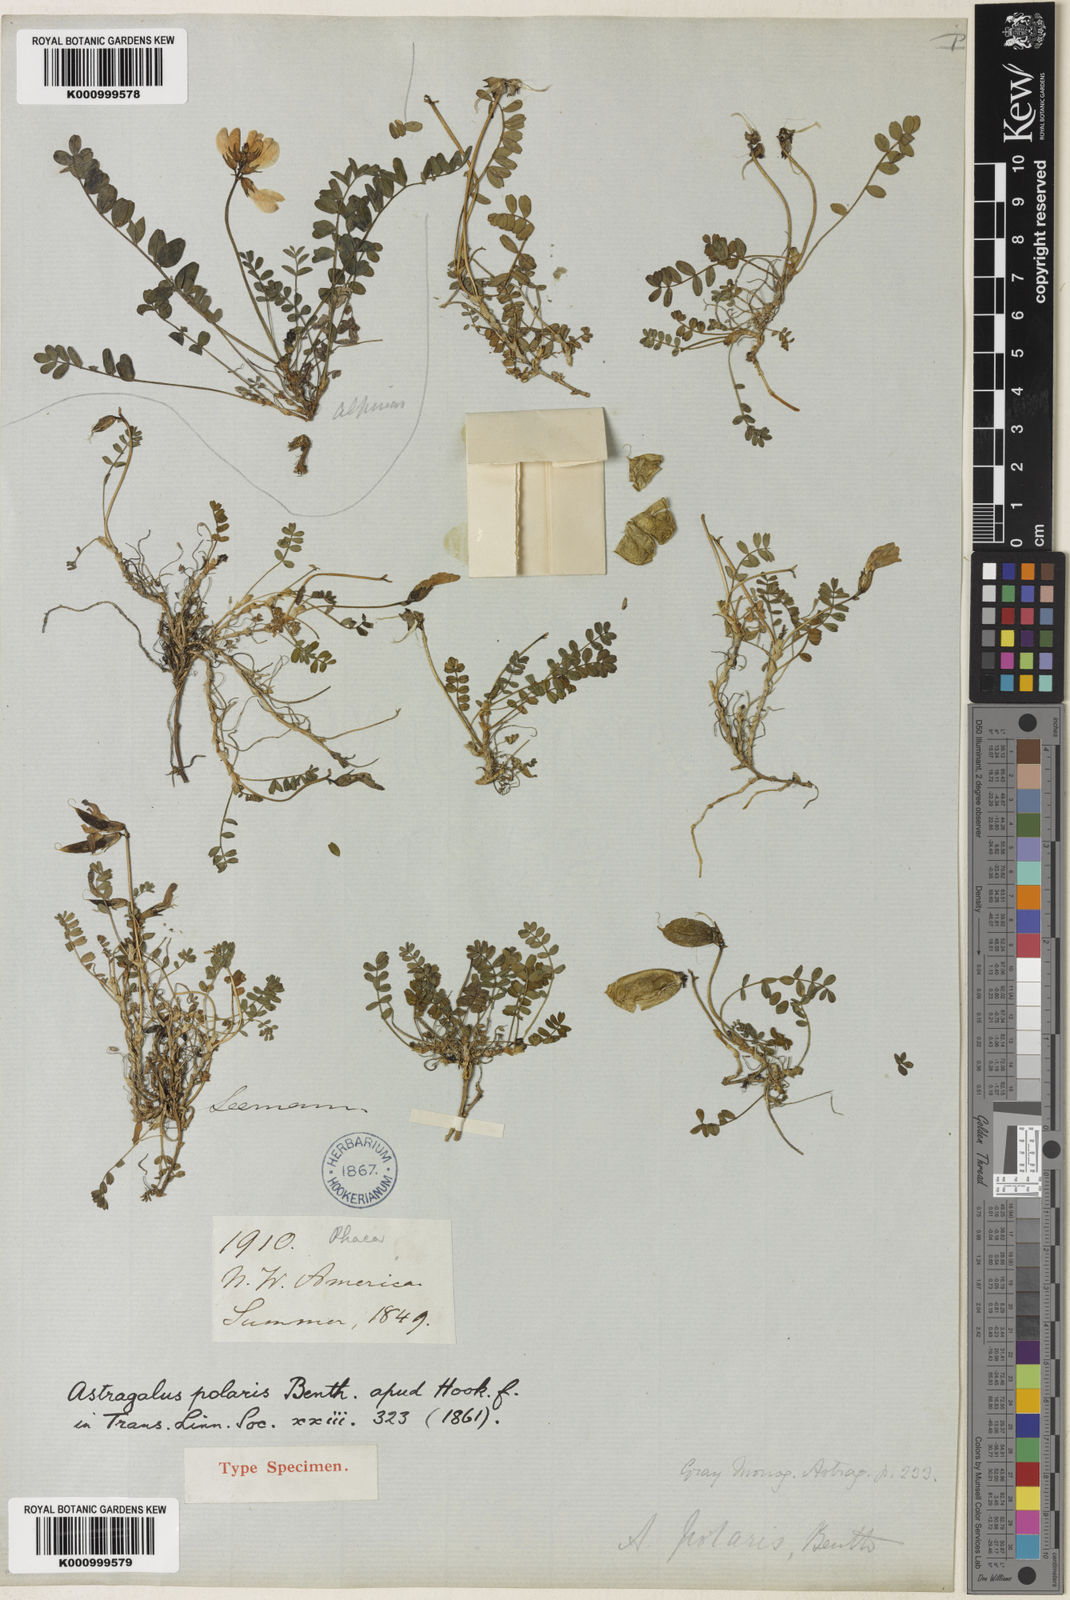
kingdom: Plantae
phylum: Tracheophyta
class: Magnoliopsida
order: Fabales
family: Fabaceae
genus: Astragalus
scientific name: Astragalus polaris
